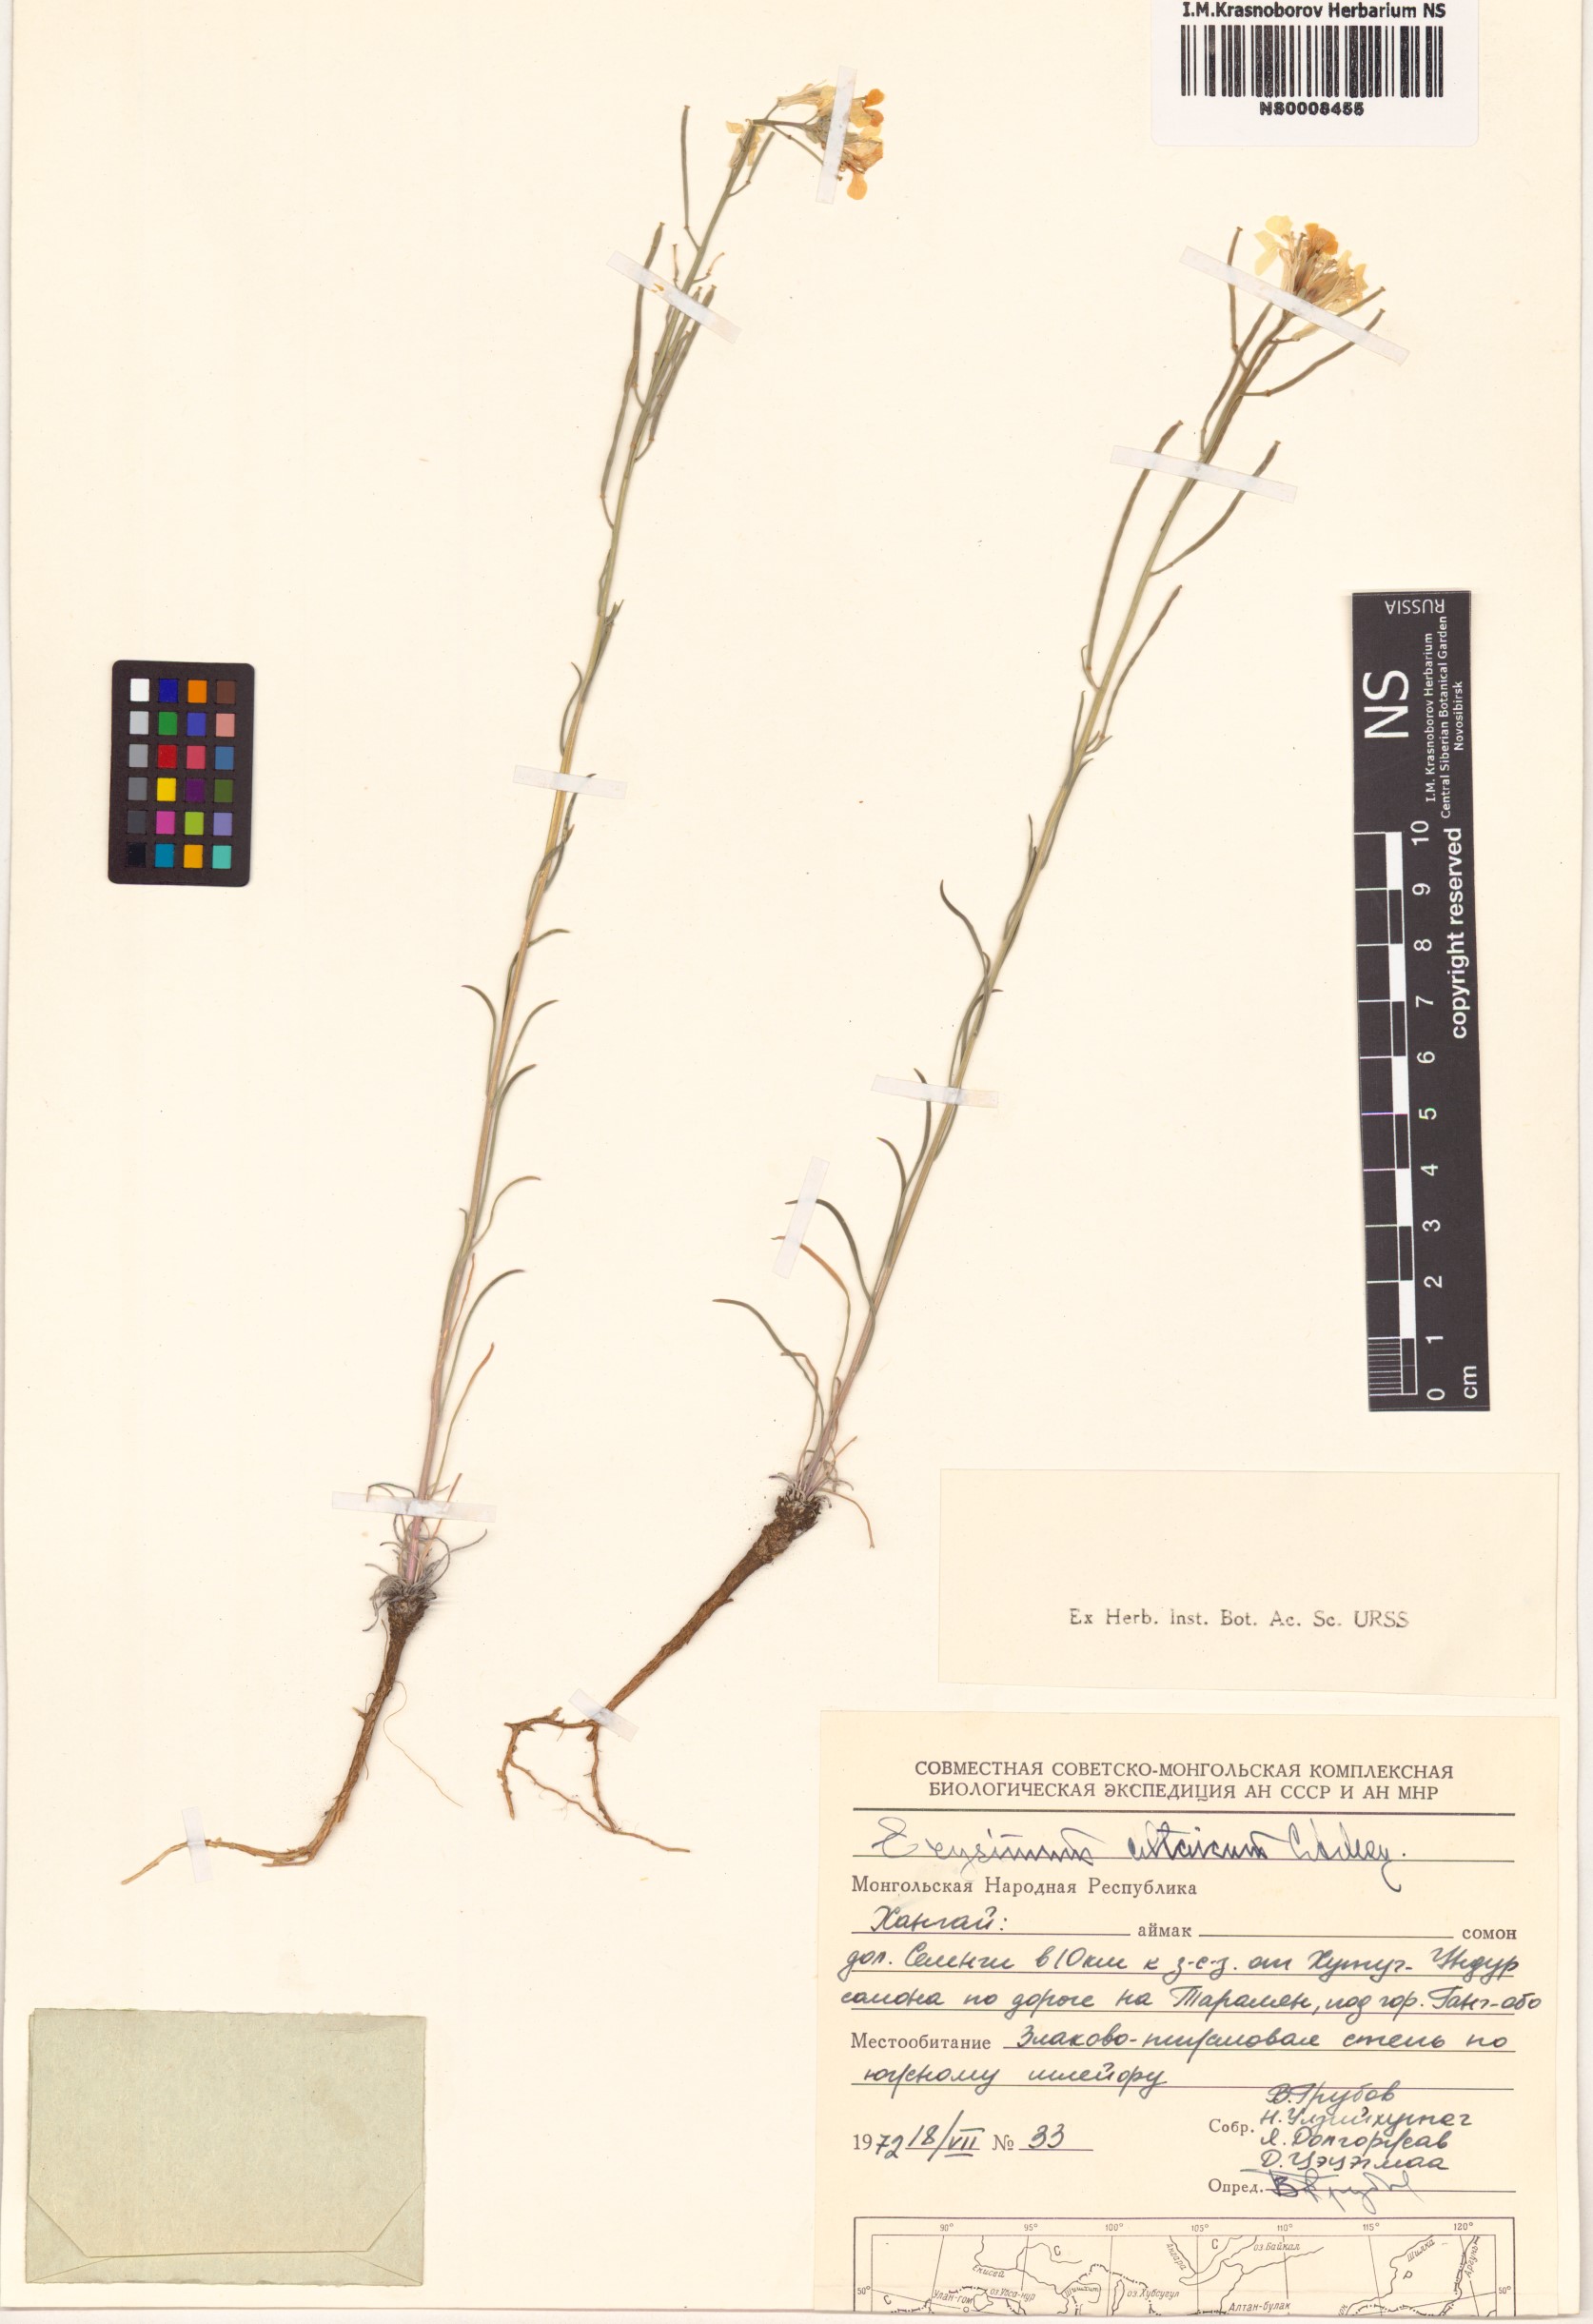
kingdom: Plantae
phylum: Tracheophyta
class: Magnoliopsida
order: Brassicales
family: Brassicaceae
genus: Erysimum
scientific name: Erysimum altaicum
